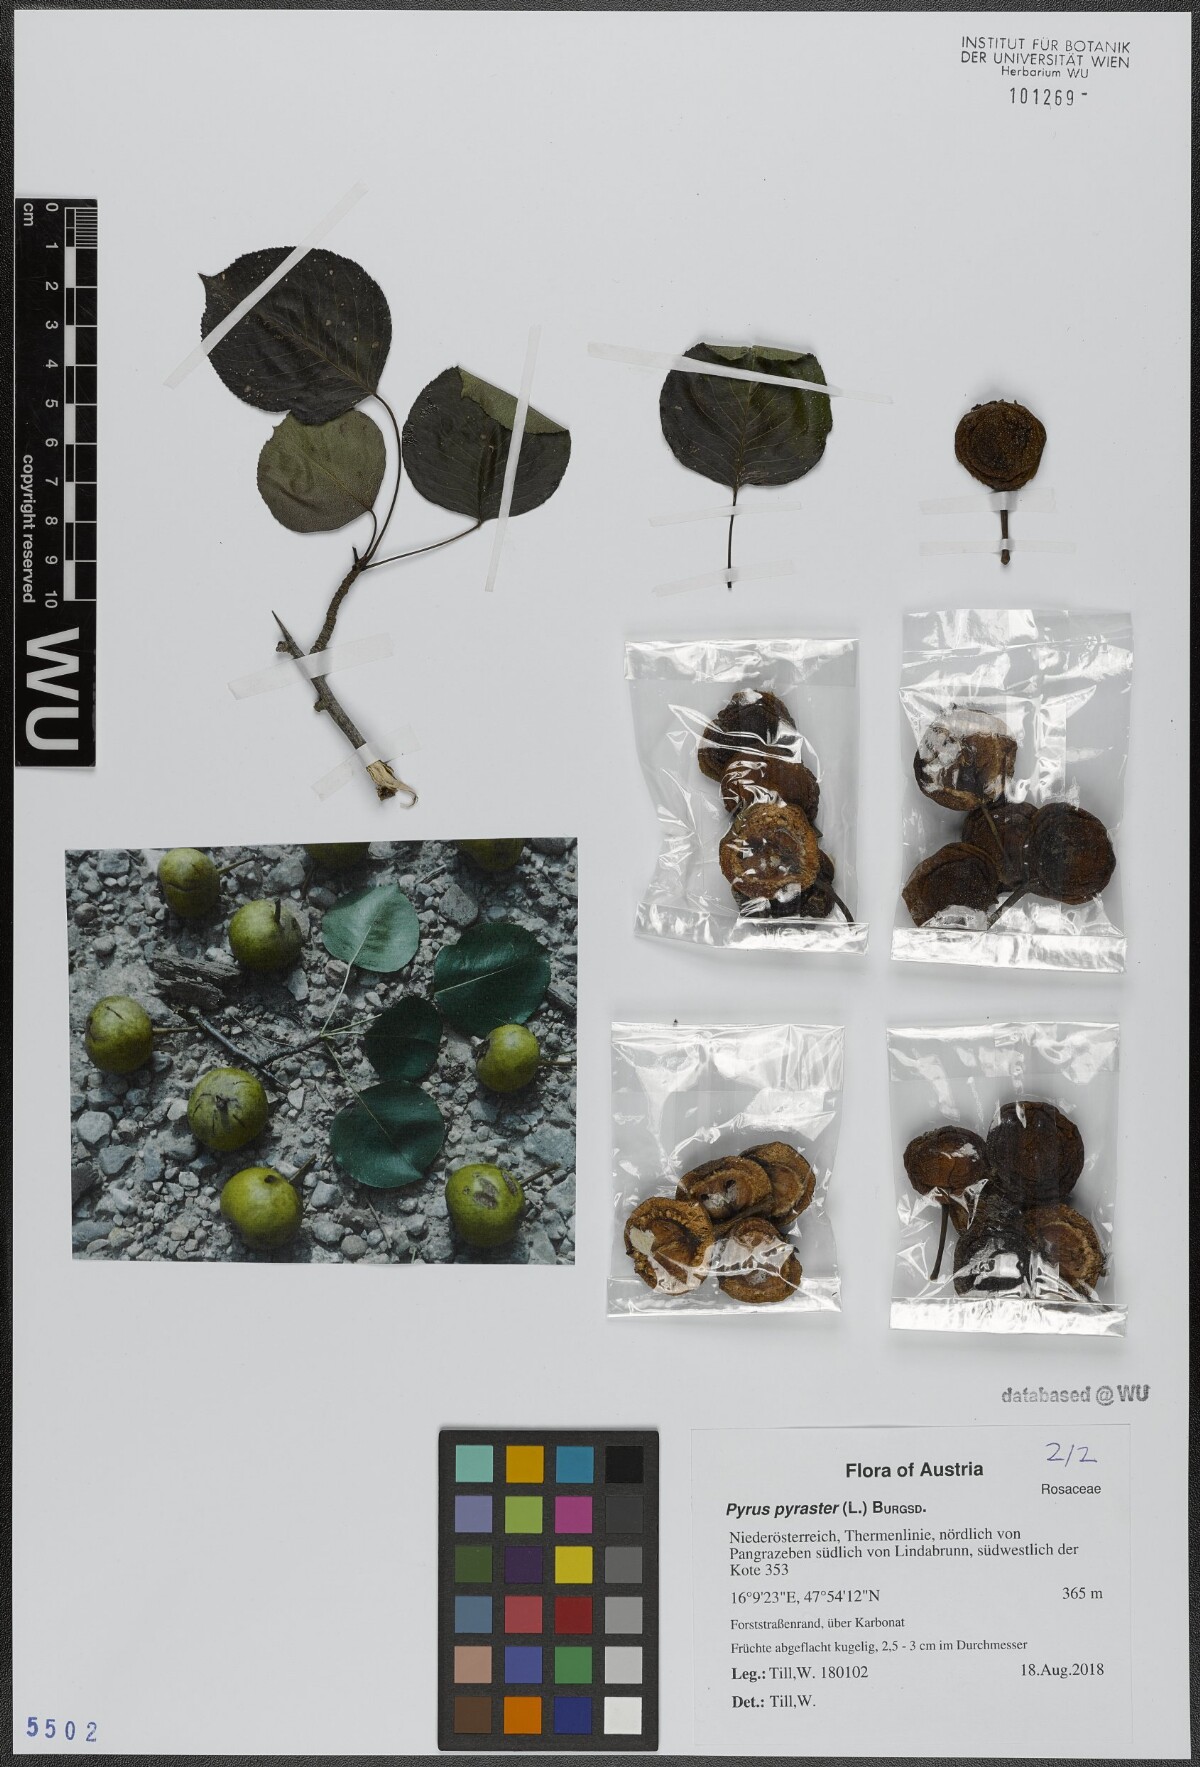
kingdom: Plantae
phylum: Tracheophyta
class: Magnoliopsida
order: Rosales
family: Rosaceae
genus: Pyrus
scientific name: Pyrus pyraster
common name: Wild pear
